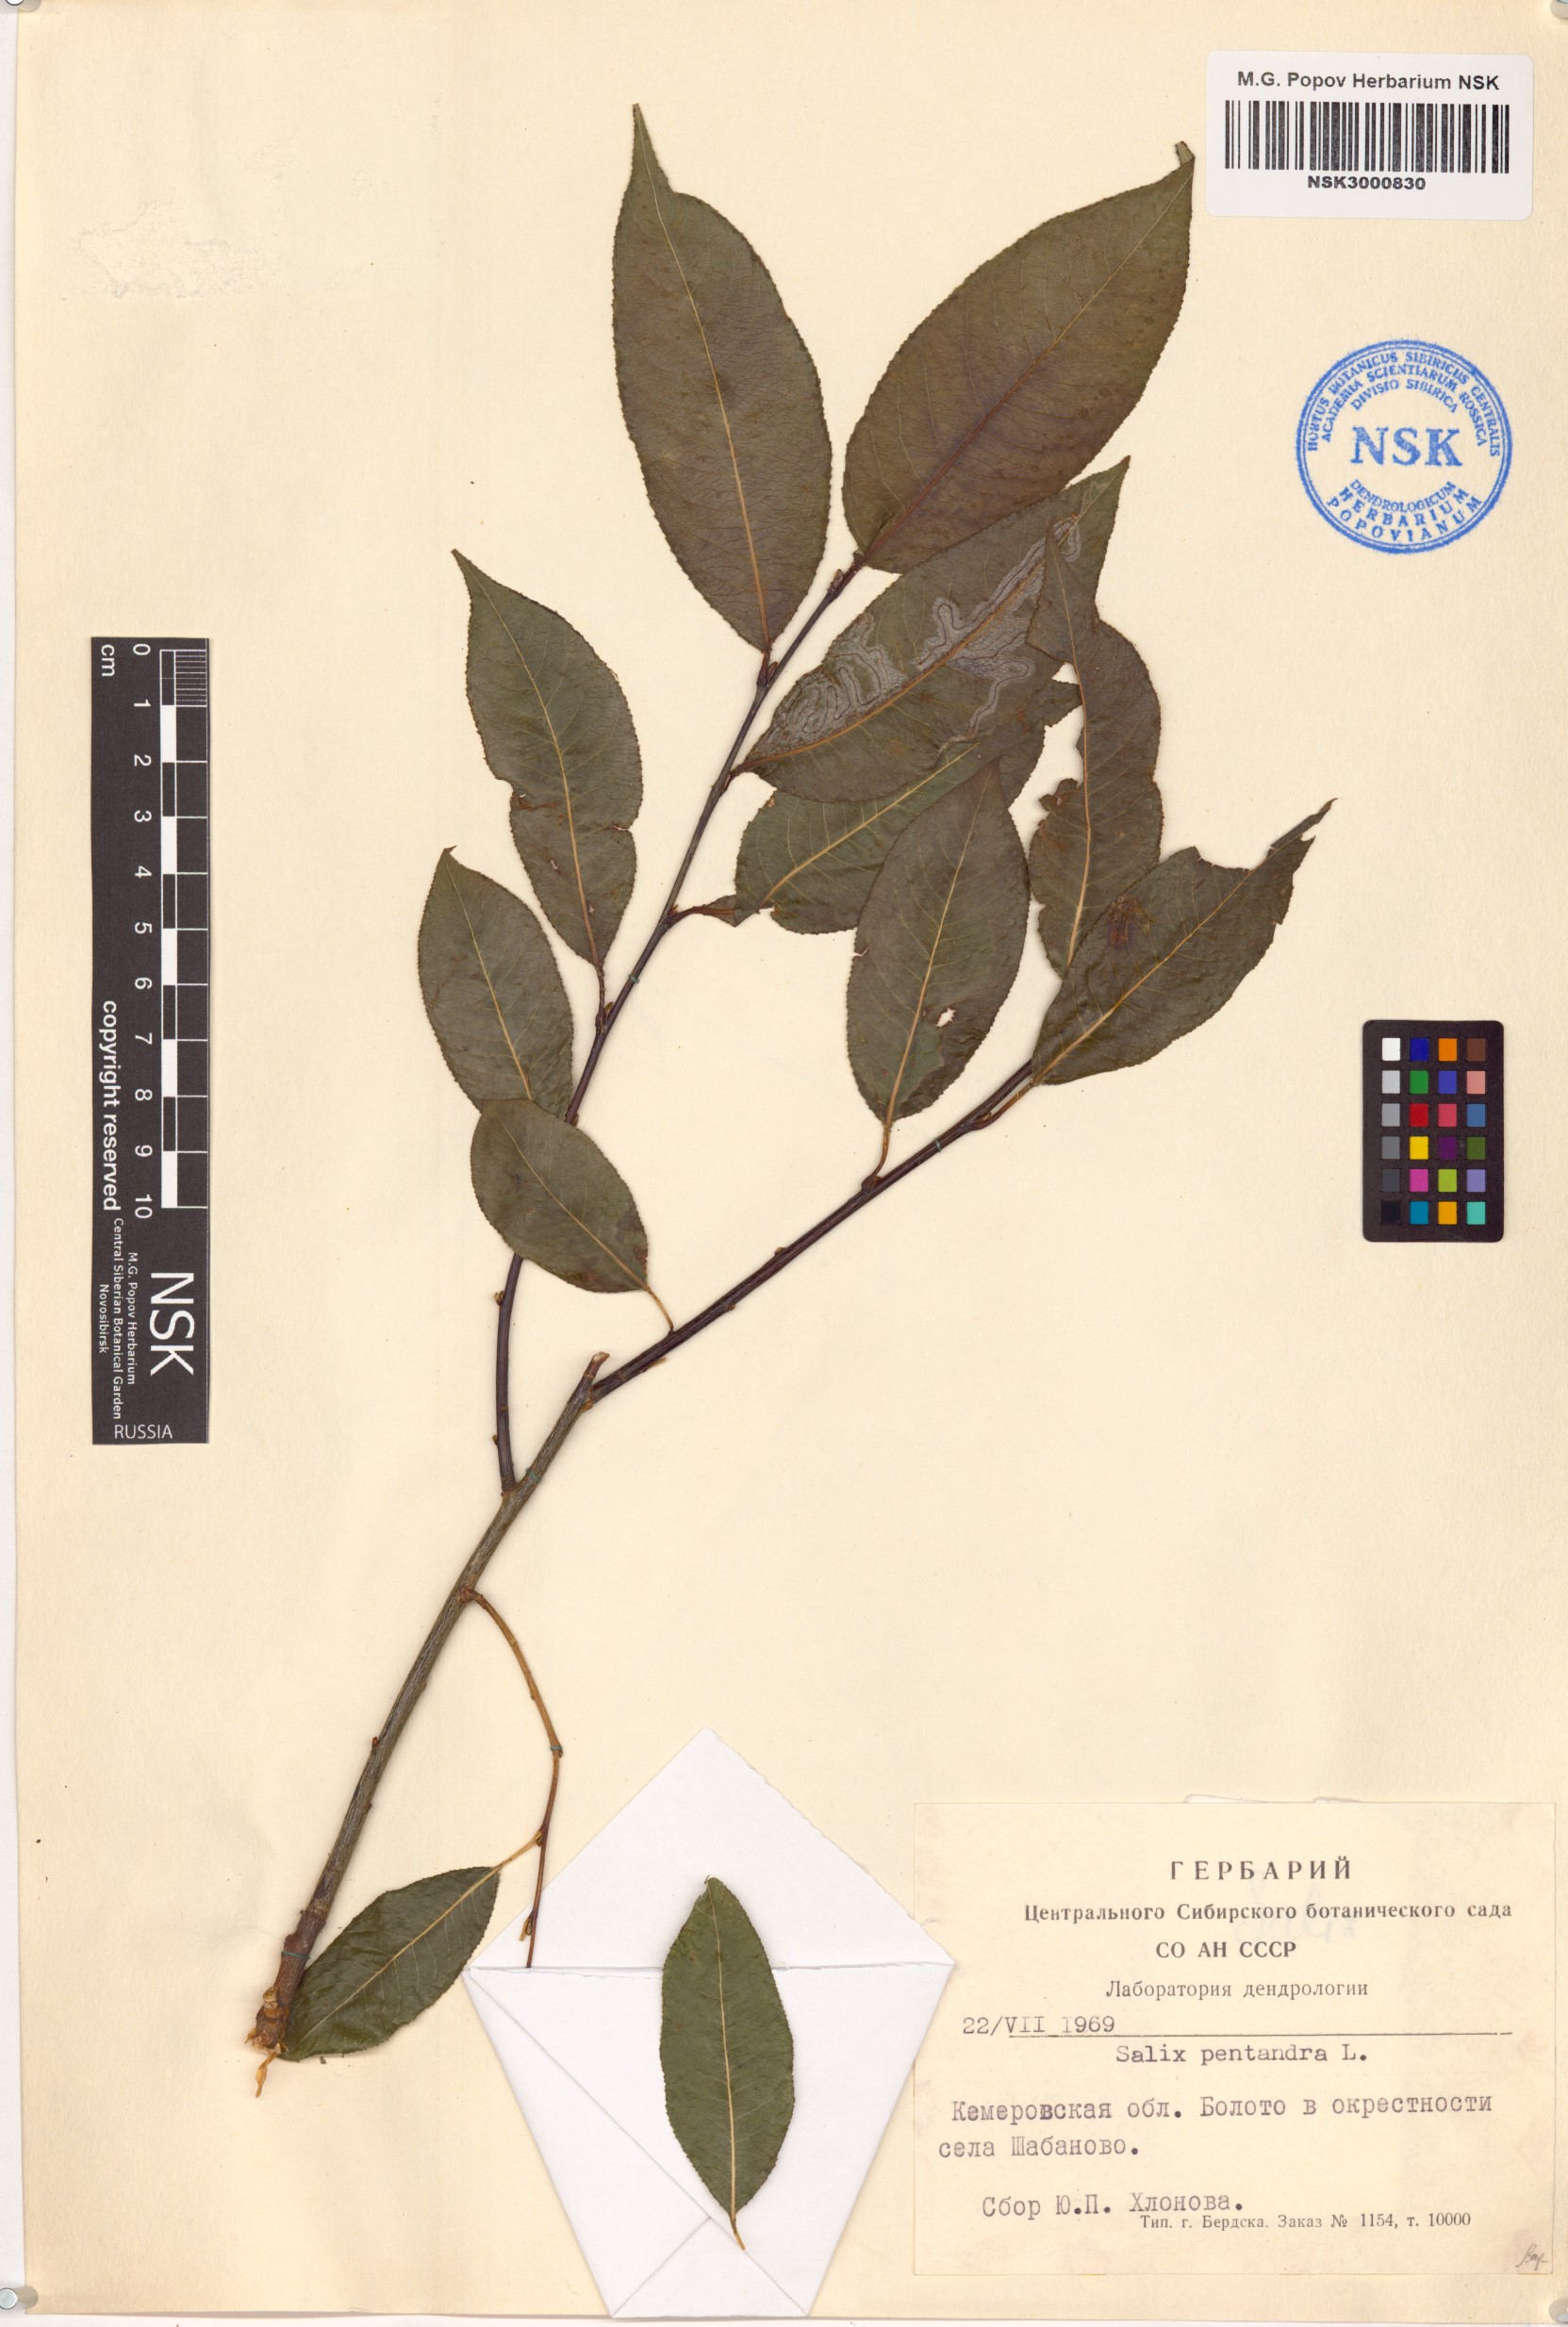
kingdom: Plantae
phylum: Tracheophyta
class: Magnoliopsida
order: Malpighiales
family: Salicaceae
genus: Salix
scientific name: Salix pentandra
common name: Bay willow
